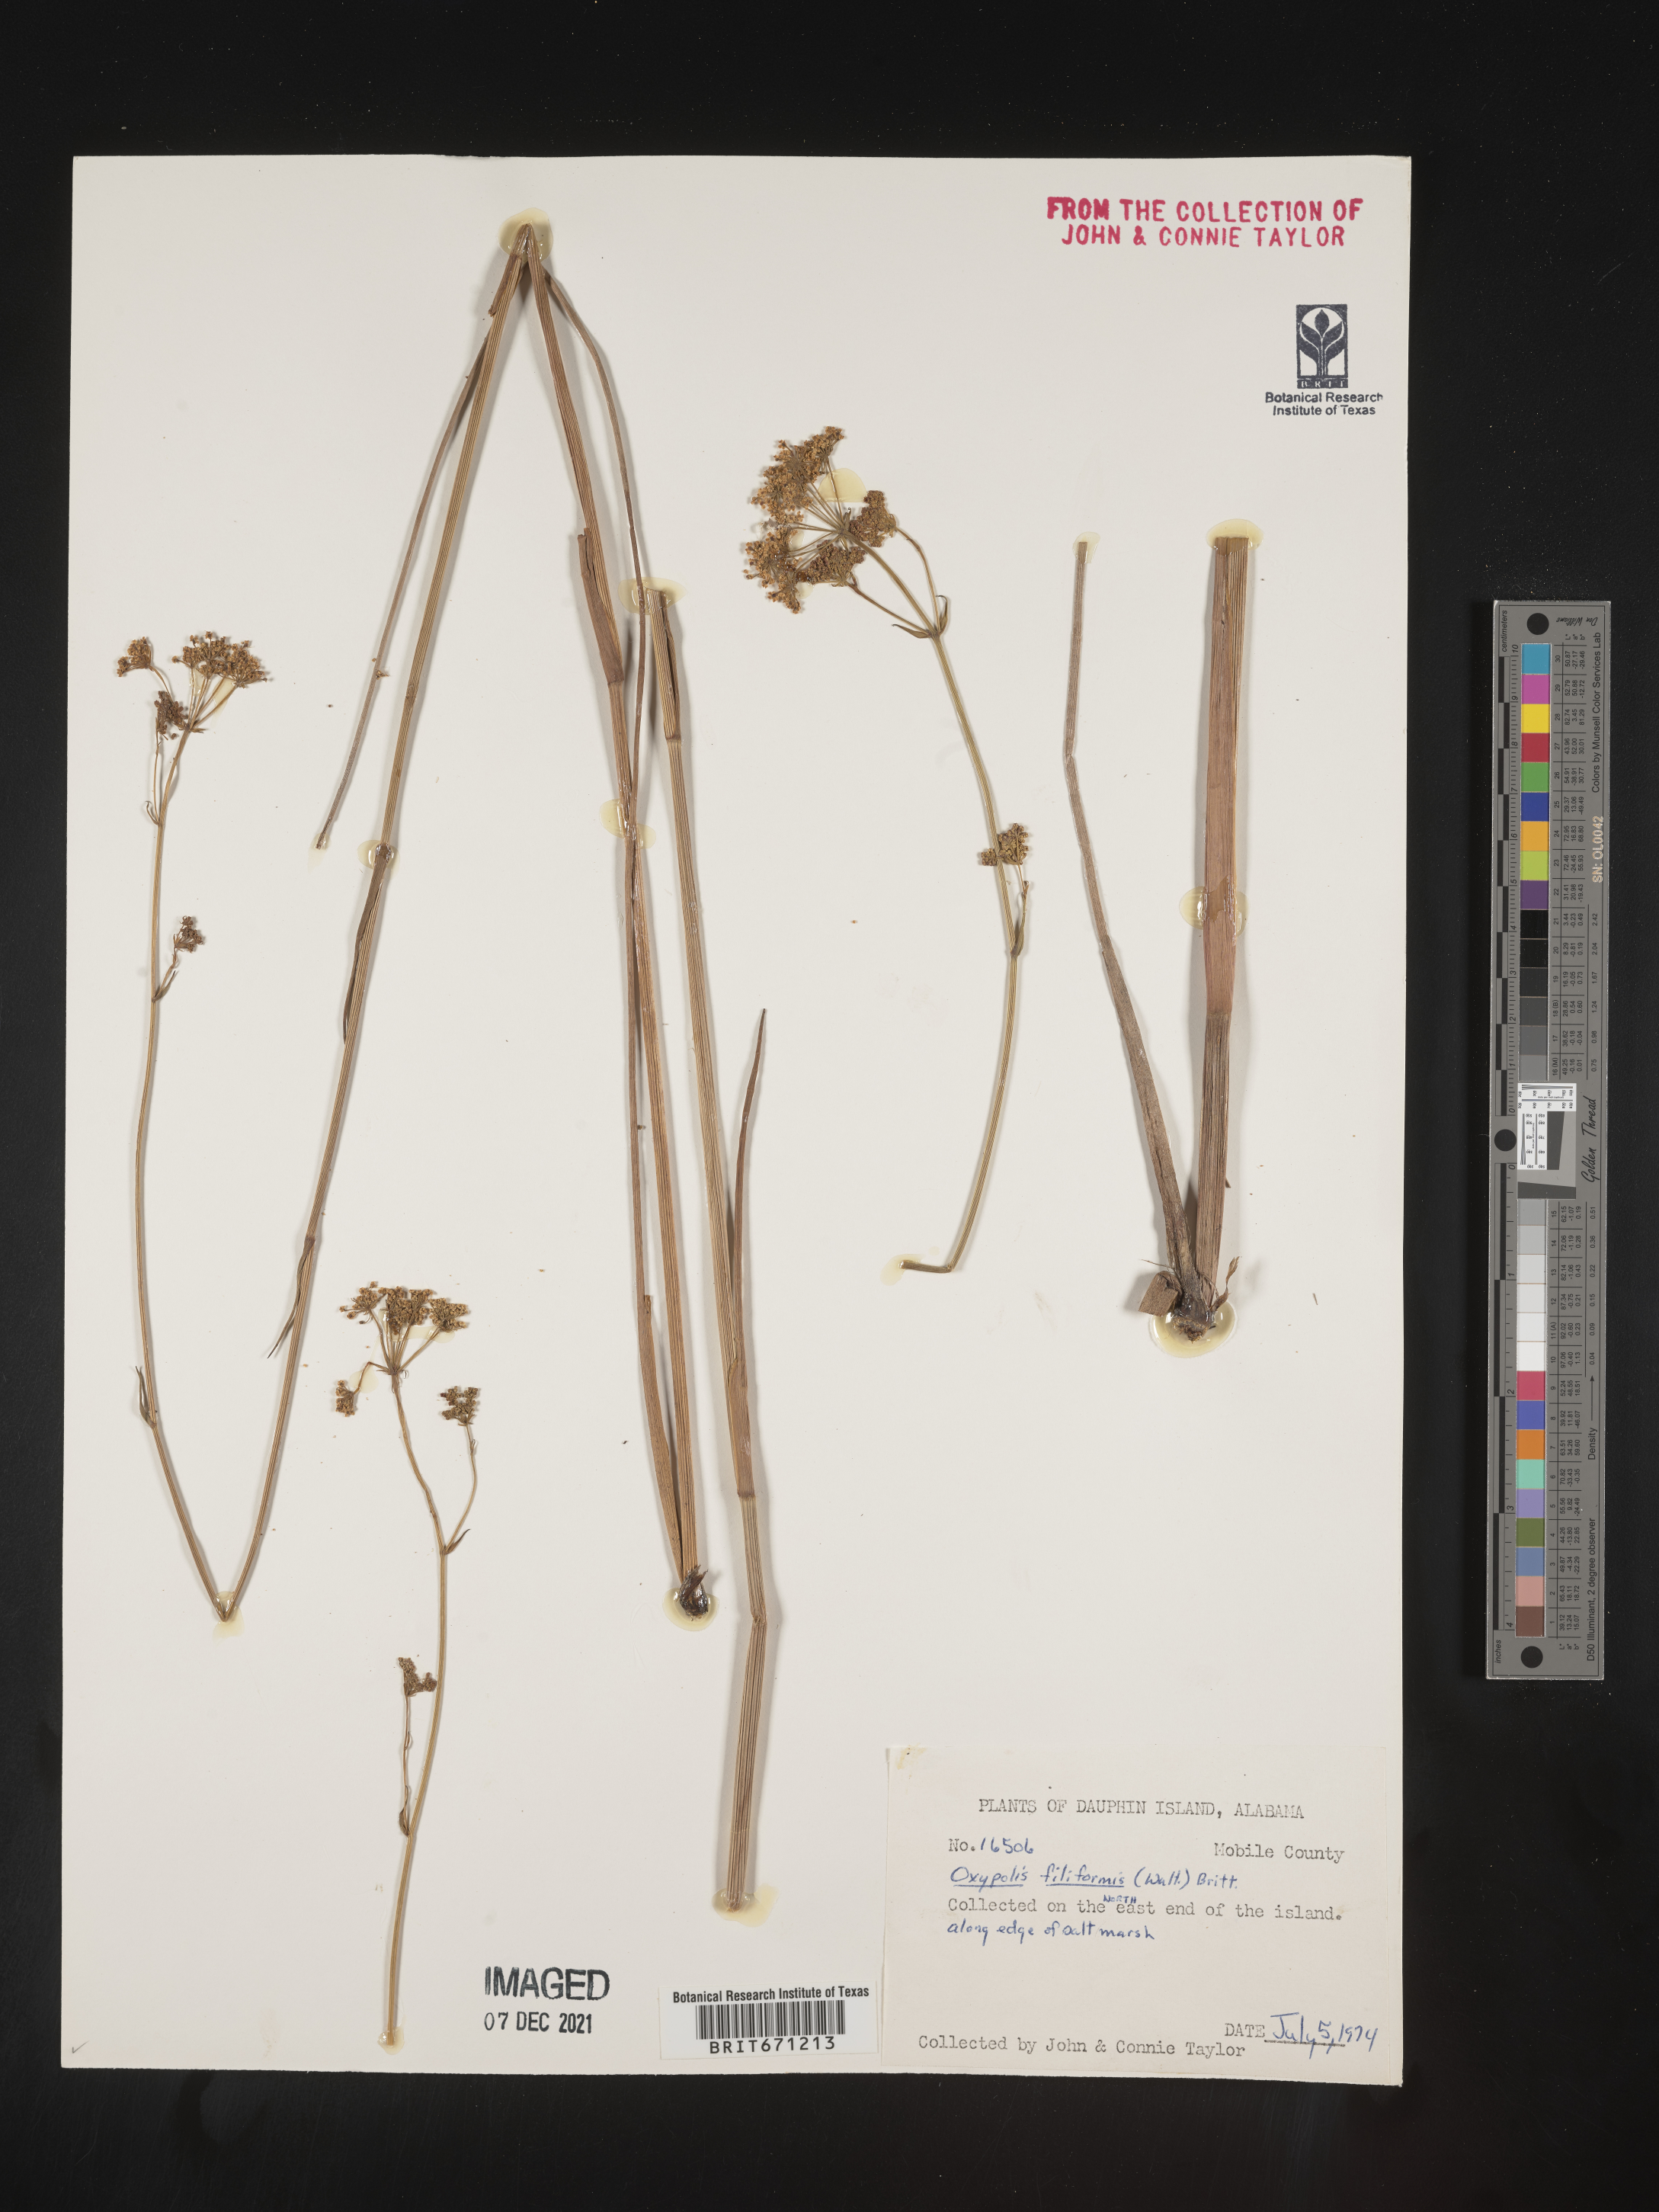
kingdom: Plantae
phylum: Tracheophyta
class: Magnoliopsida
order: Apiales
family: Apiaceae
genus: Tiedemannia
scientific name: Tiedemannia filiformis
